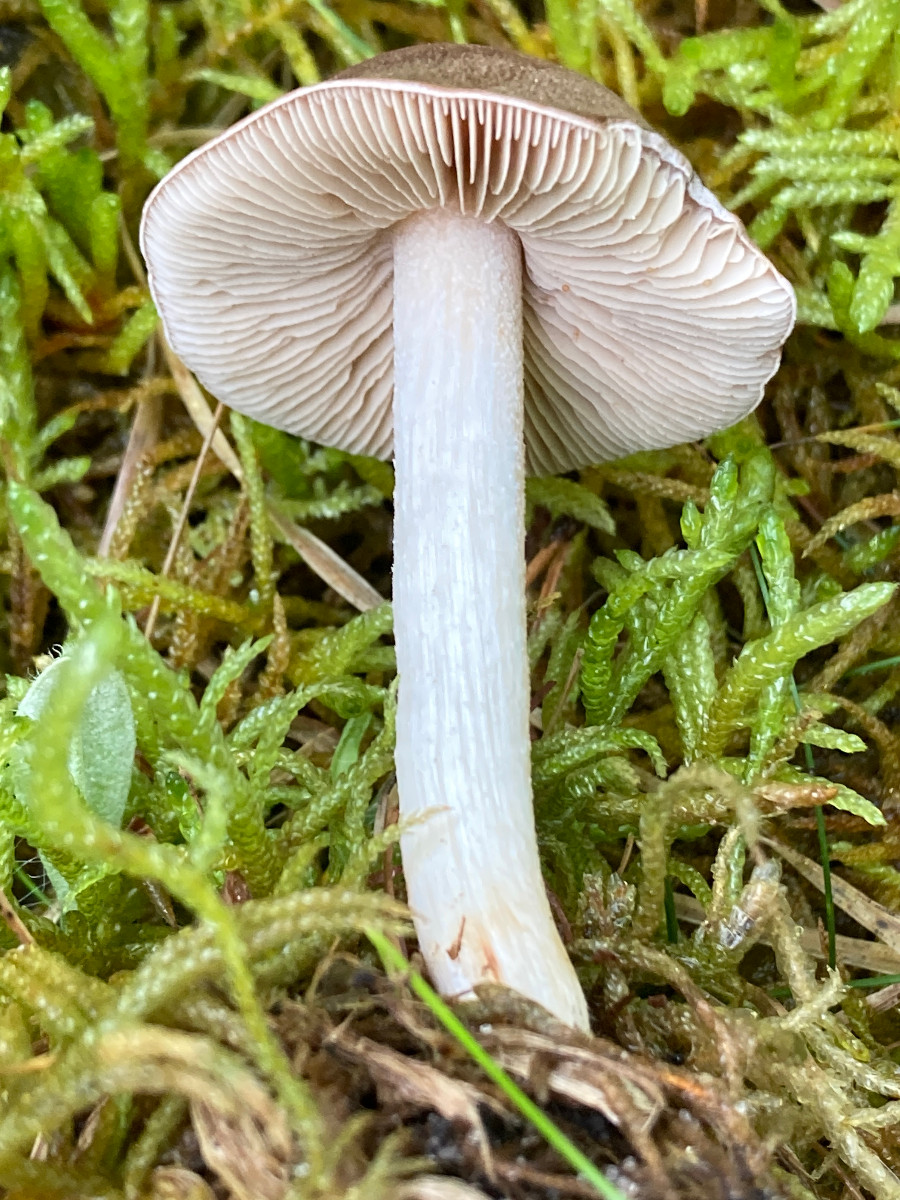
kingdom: Fungi
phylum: Basidiomycota
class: Agaricomycetes
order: Agaricales
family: Hymenogastraceae
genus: Hebeloma
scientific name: Hebeloma theobrominum
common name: rødbrun tåreblad
